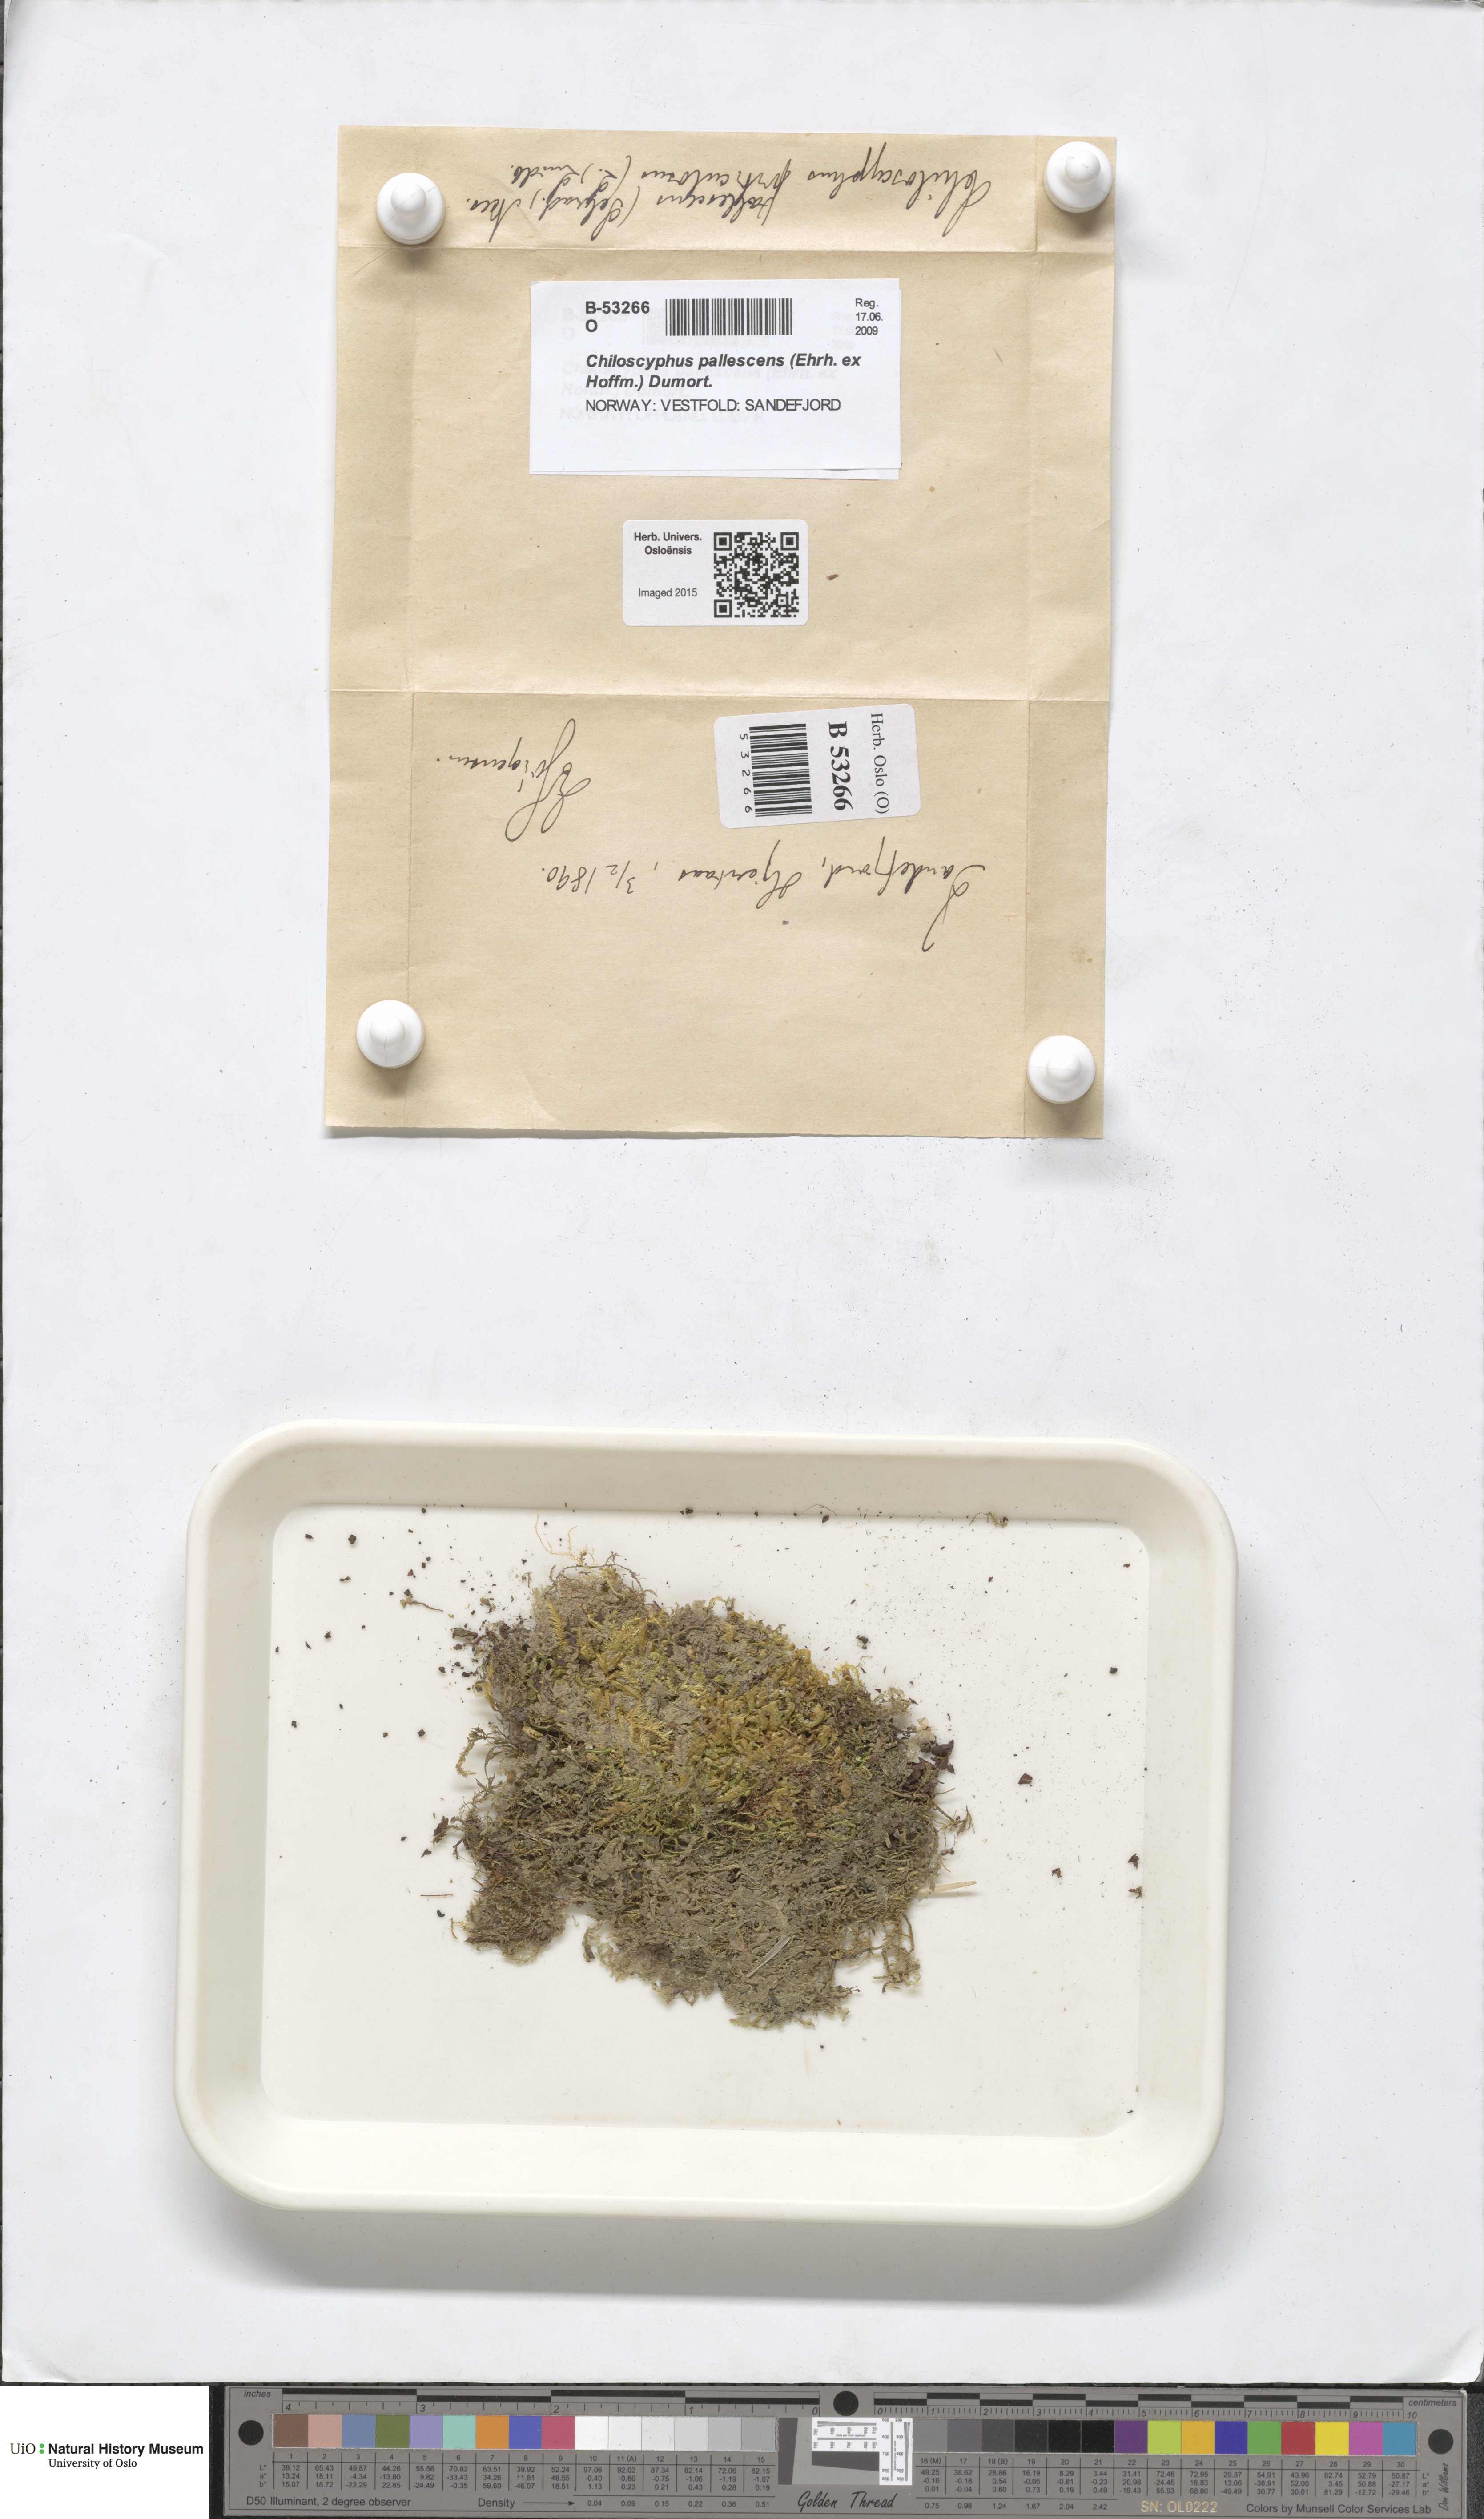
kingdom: Plantae
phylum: Marchantiophyta
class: Jungermanniopsida
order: Jungermanniales
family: Lophocoleaceae
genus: Chiloscyphus
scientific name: Chiloscyphus pallescens
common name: St winifrid's other moss
